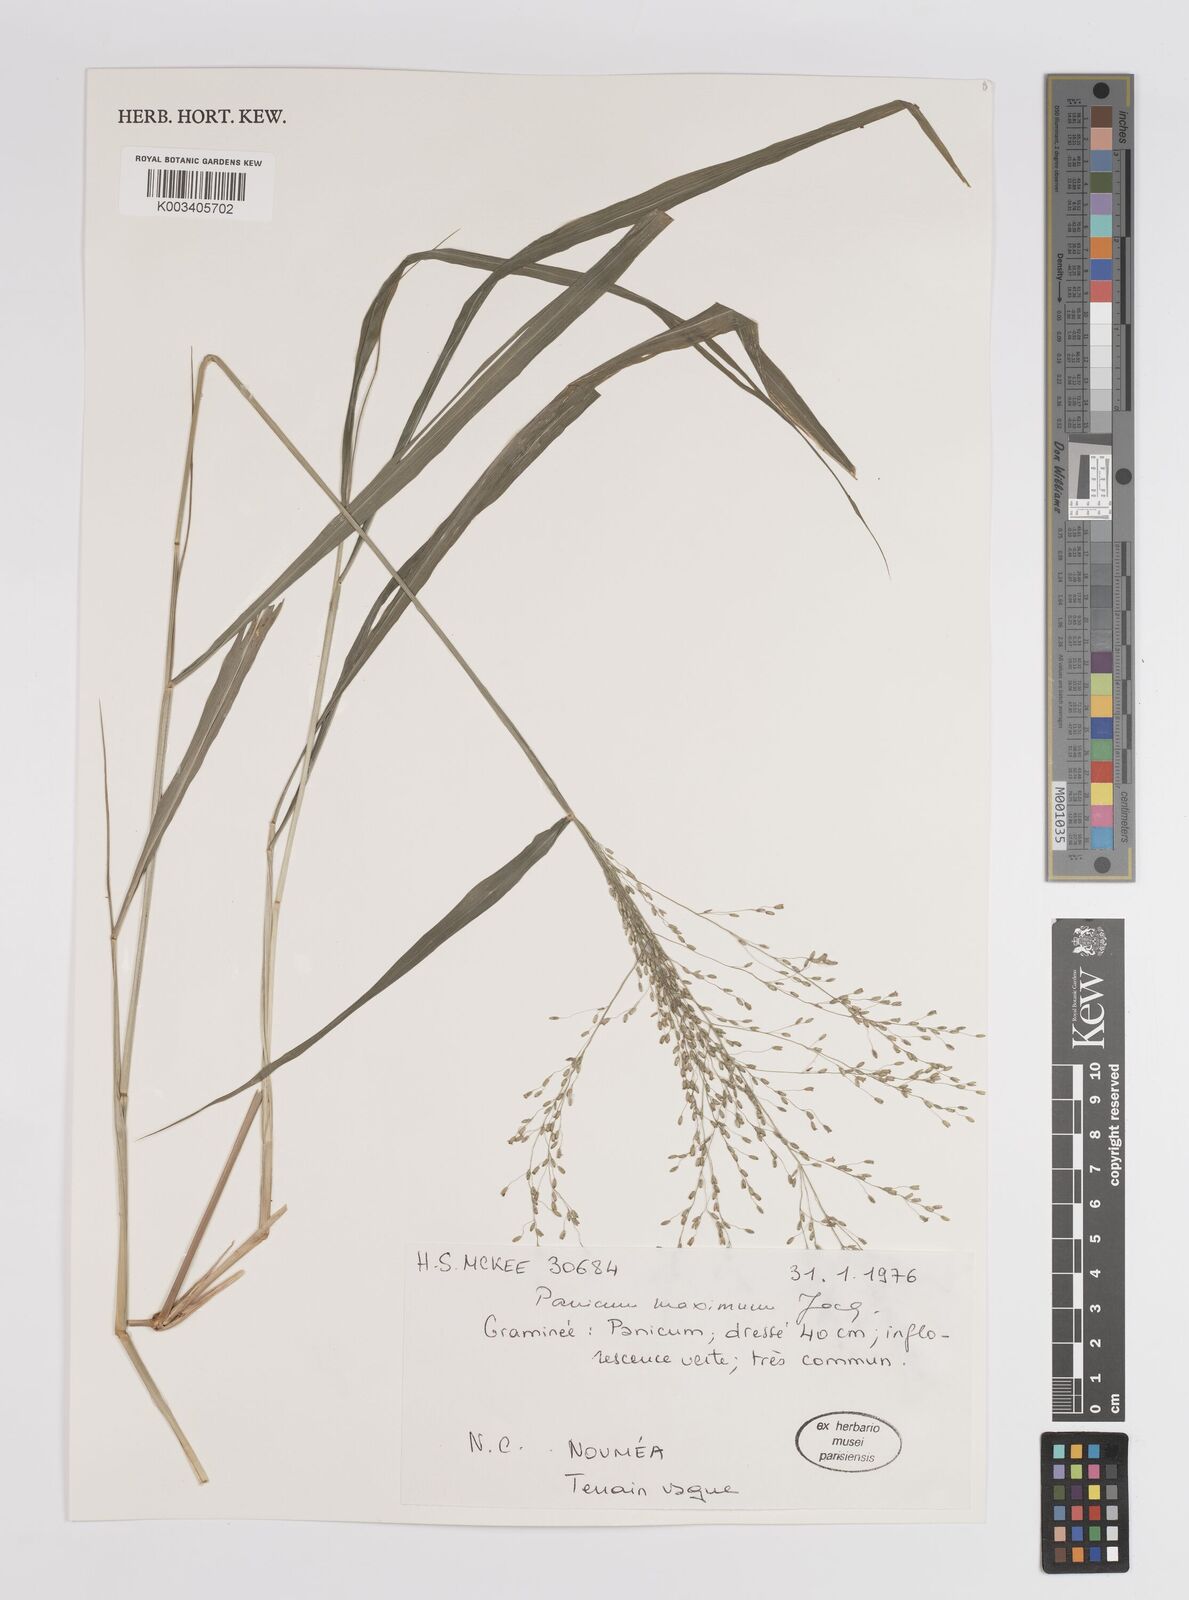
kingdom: Plantae
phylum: Tracheophyta
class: Liliopsida
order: Poales
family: Poaceae
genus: Megathyrsus
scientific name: Megathyrsus maximus
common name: Guineagrass
